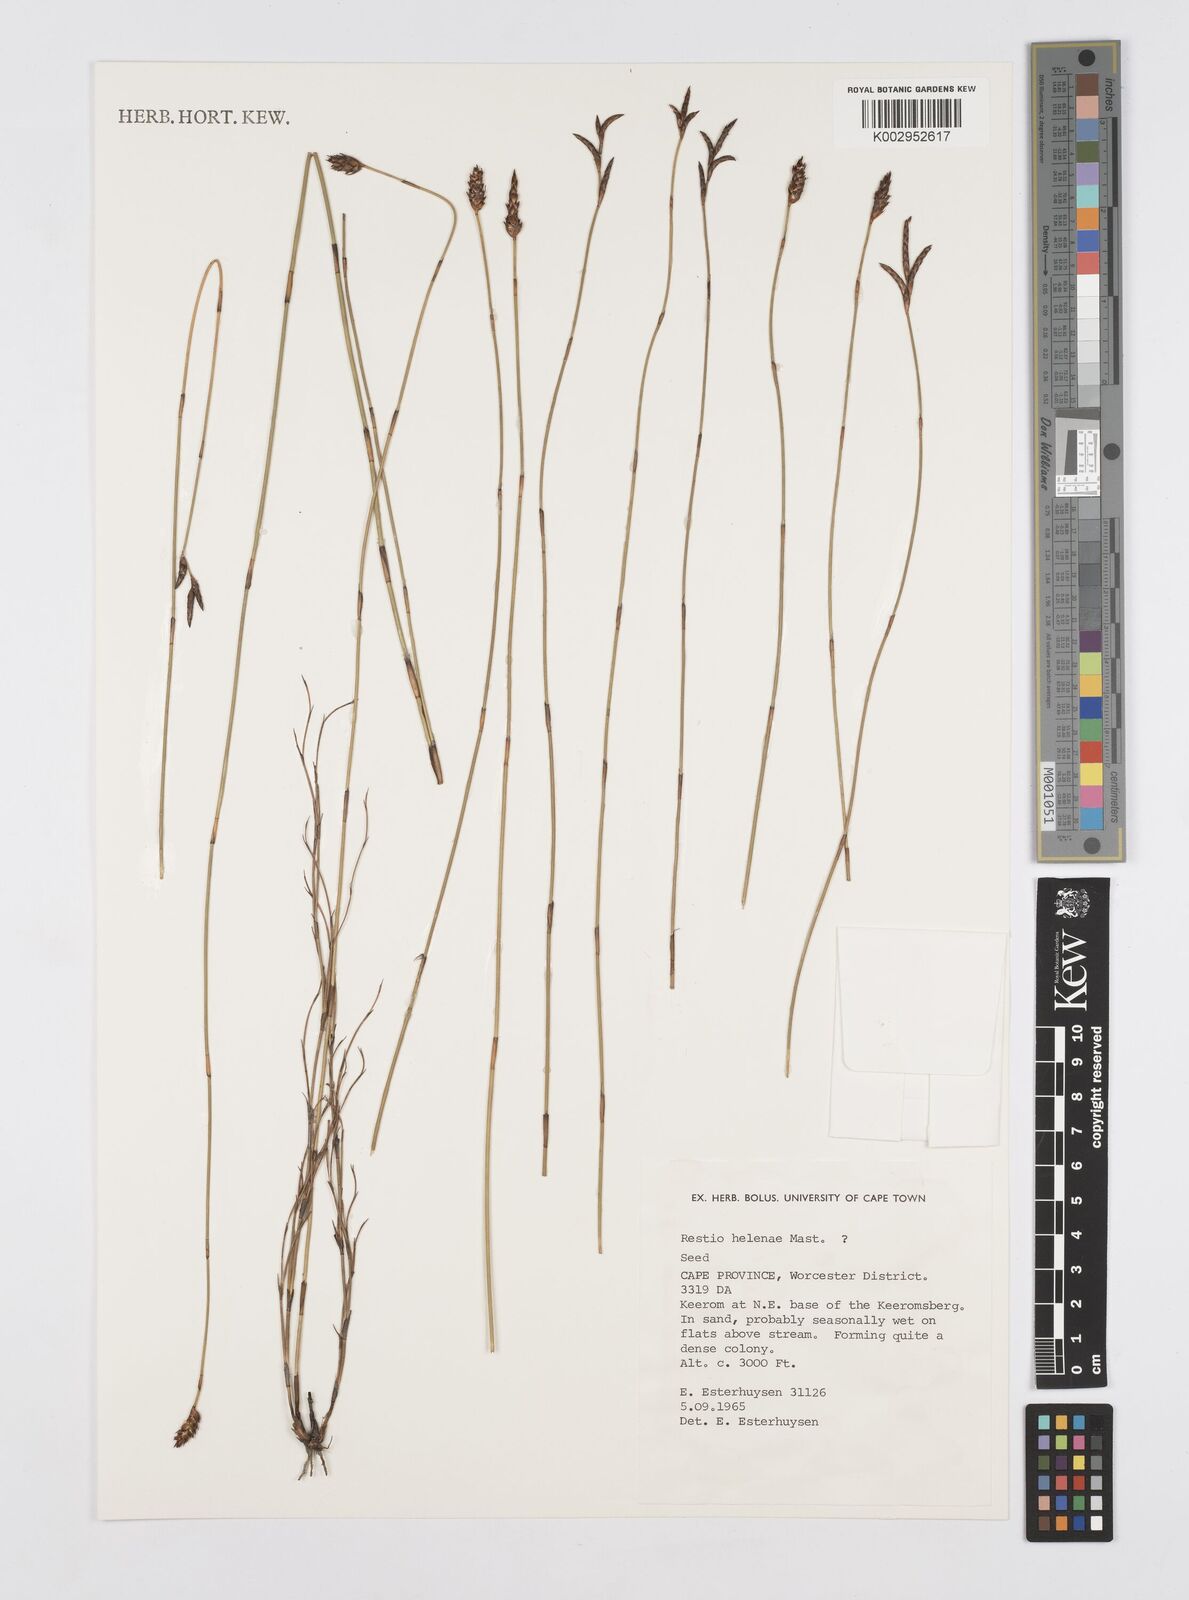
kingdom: Plantae
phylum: Tracheophyta
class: Liliopsida
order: Poales
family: Restionaceae
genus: Restio
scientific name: Restio helenae
